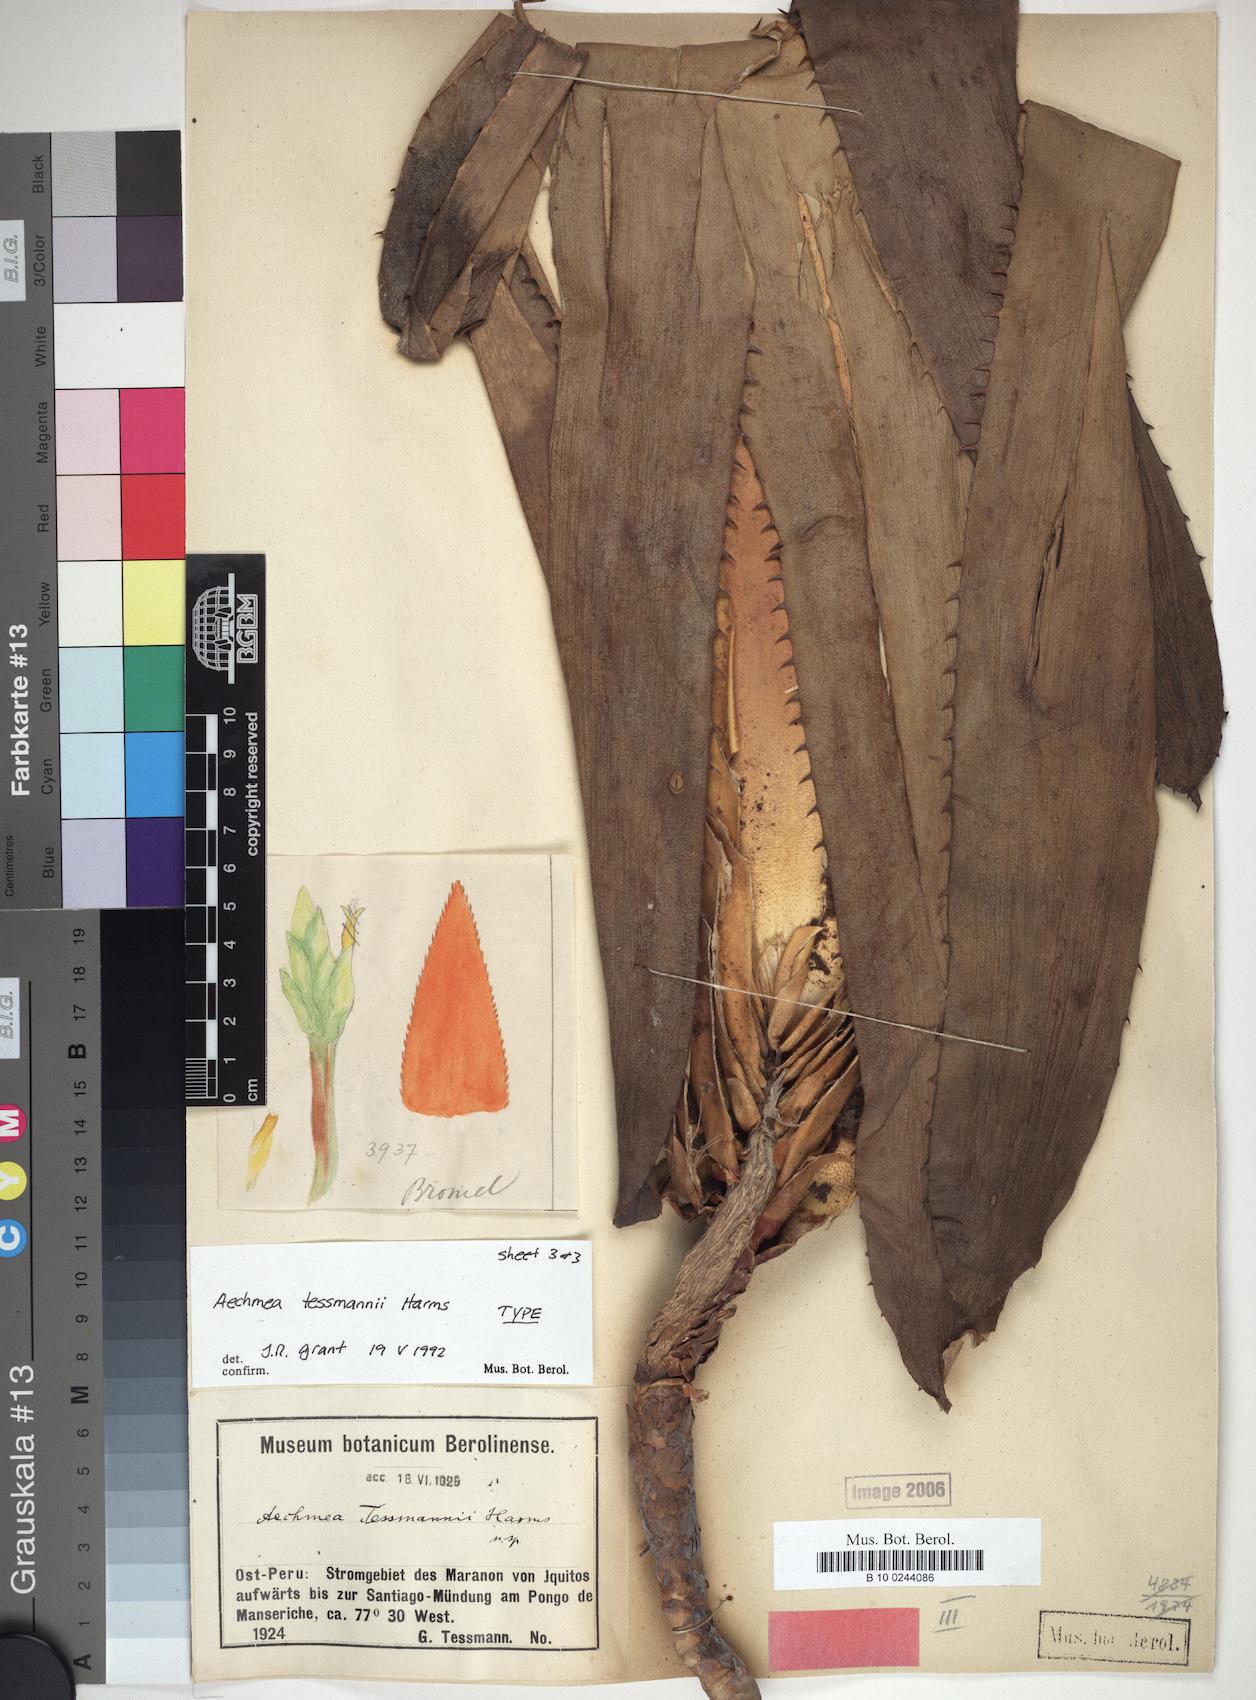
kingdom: Plantae
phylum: Tracheophyta
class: Liliopsida
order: Poales
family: Bromeliaceae
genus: Aechmea
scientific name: Aechmea tessmannii
